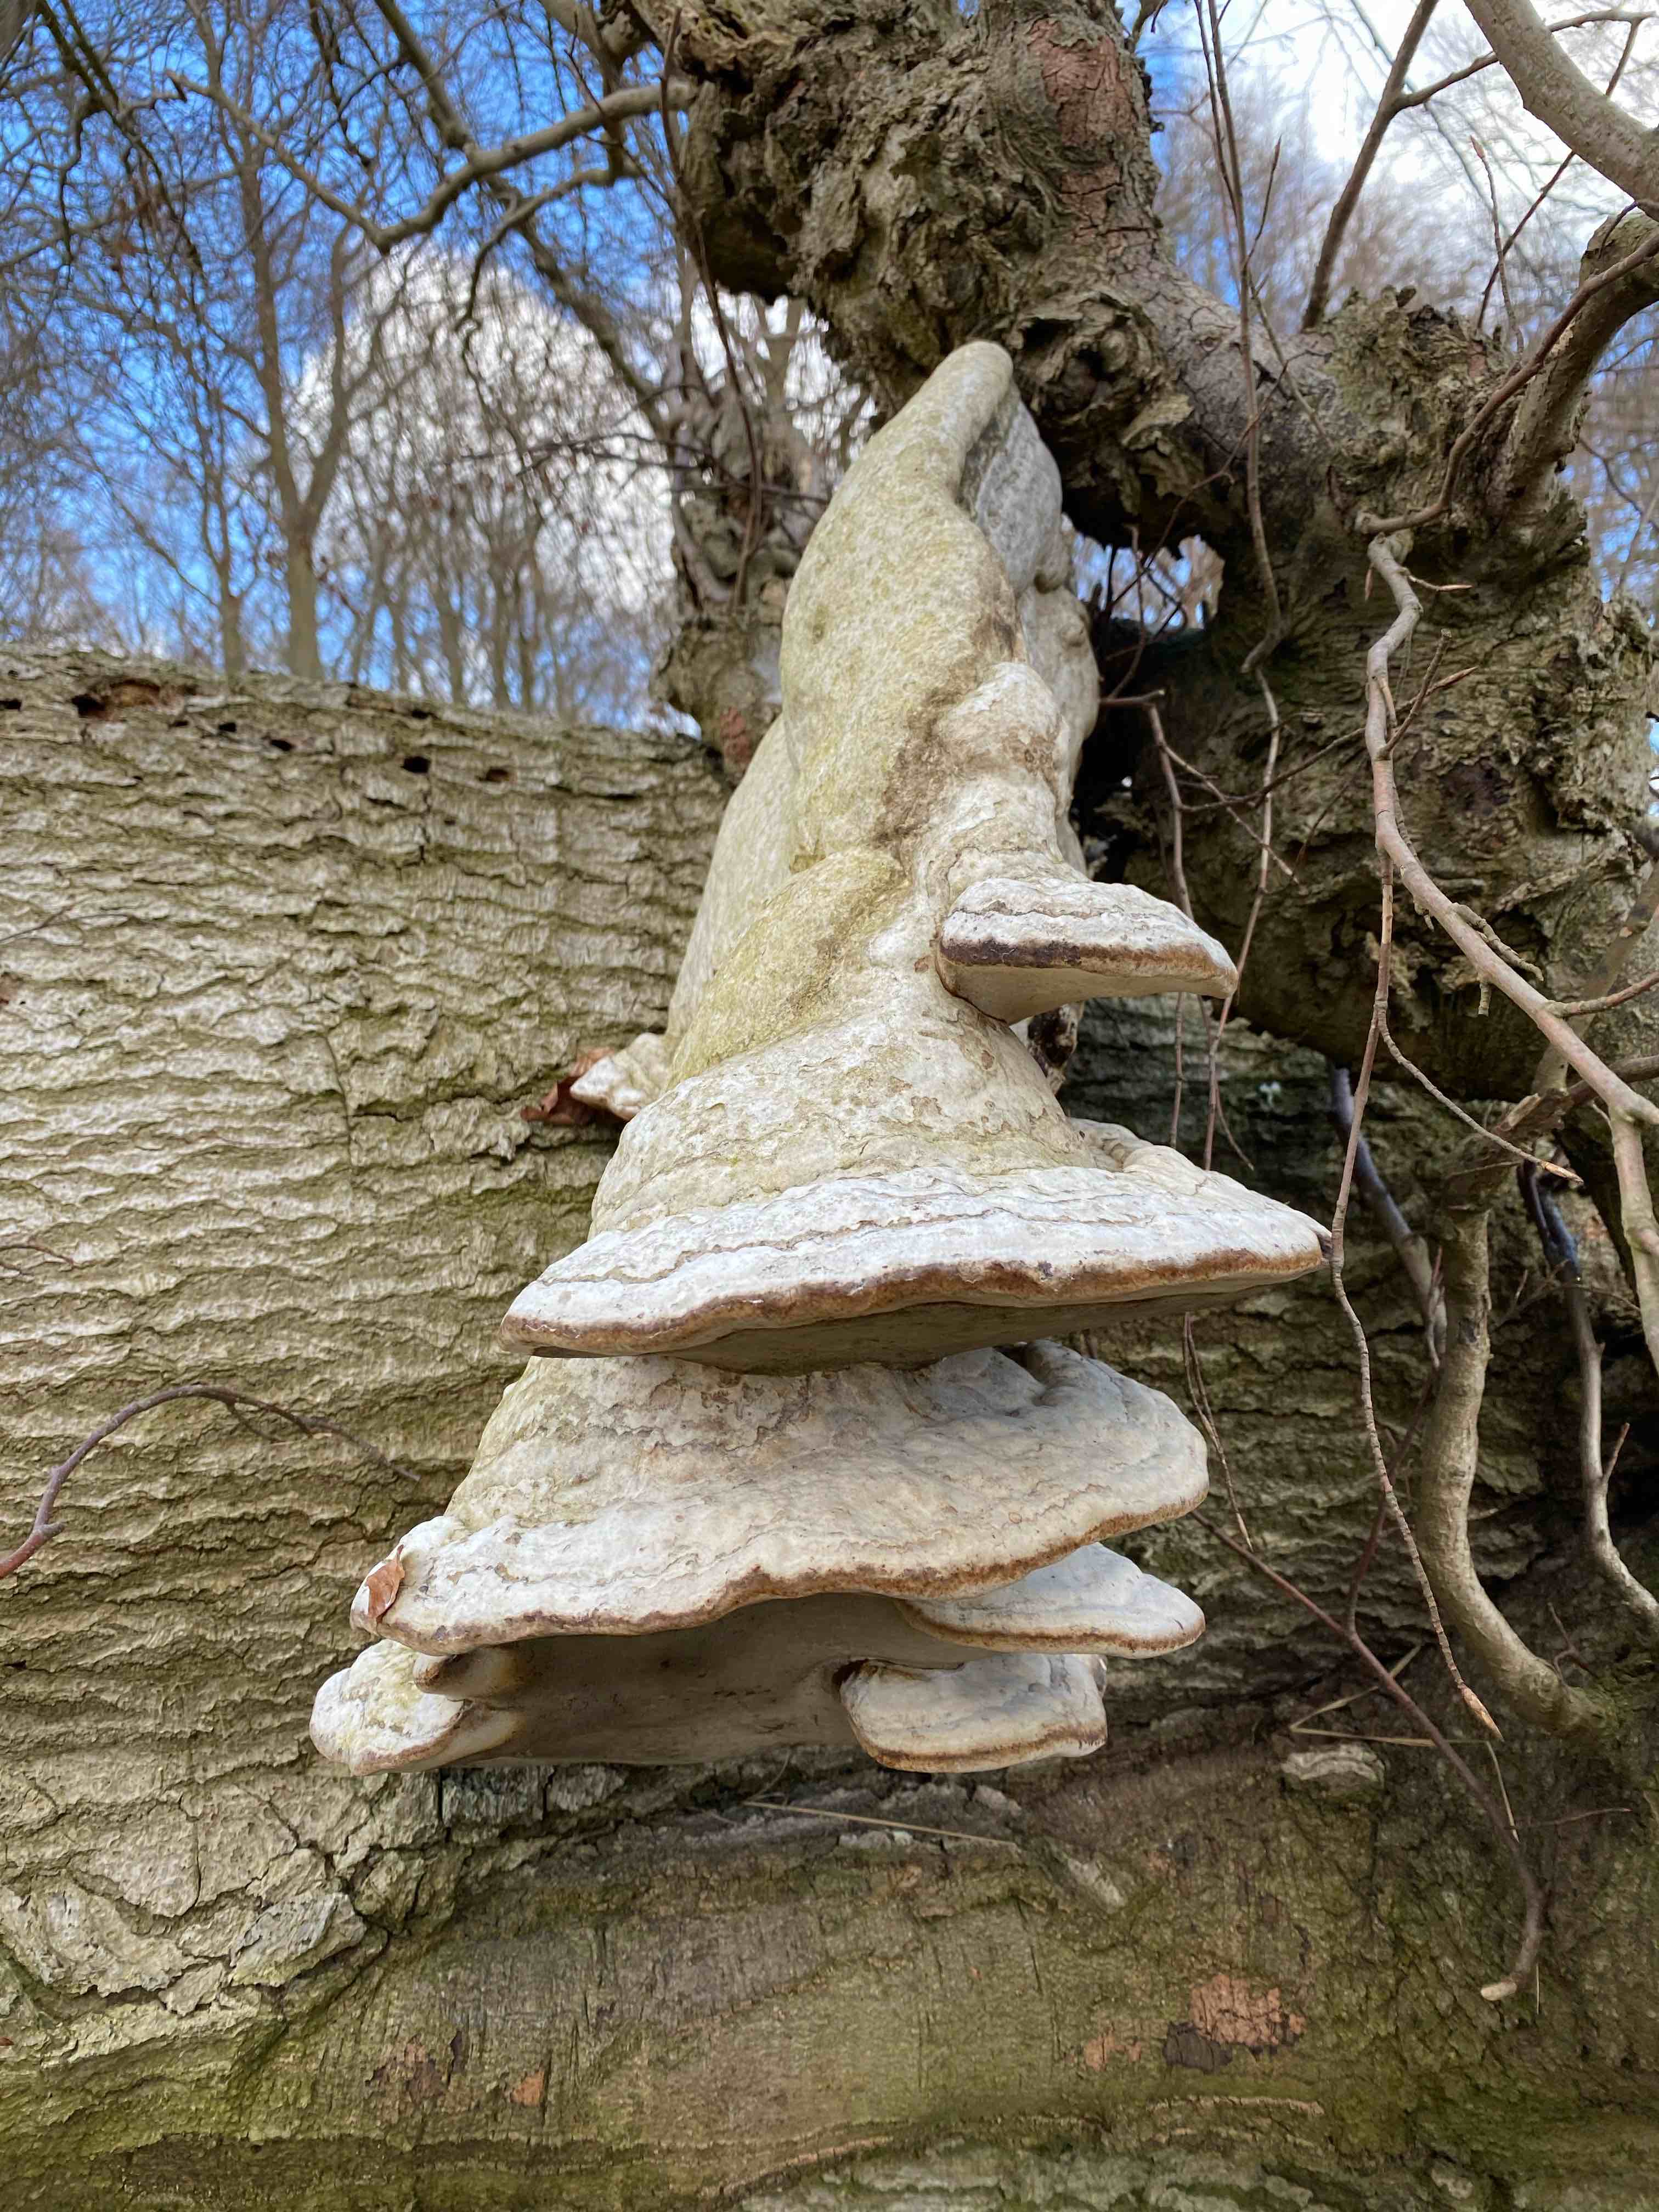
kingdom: Fungi
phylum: Basidiomycota
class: Agaricomycetes
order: Polyporales
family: Polyporaceae
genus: Fomes
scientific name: Fomes fomentarius
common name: tøndersvamp
